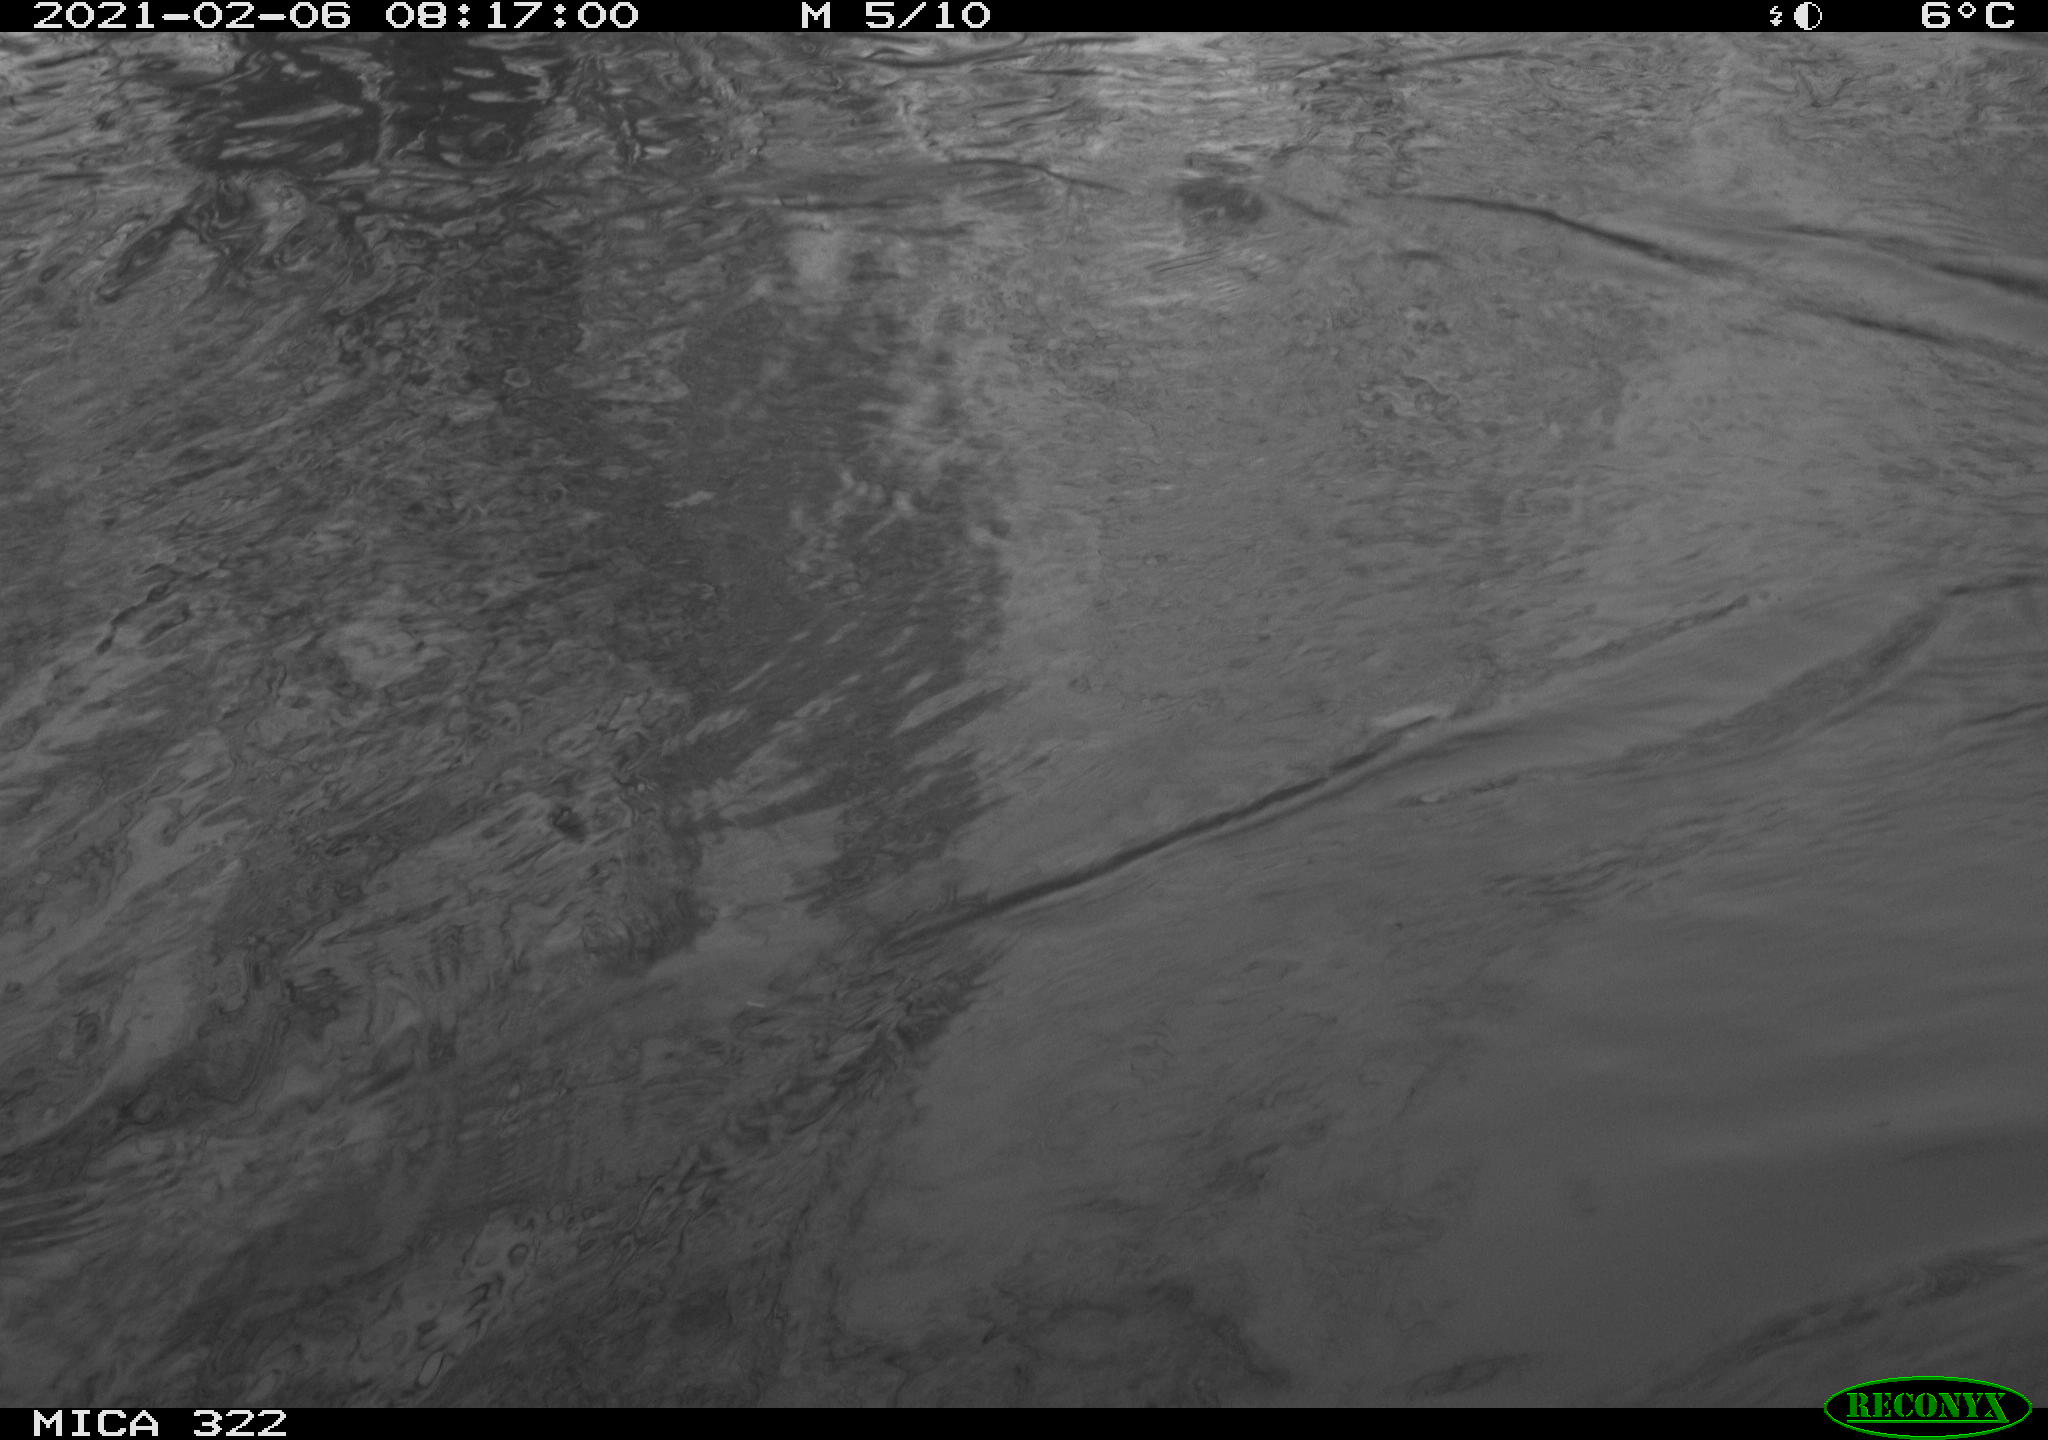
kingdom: Animalia
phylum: Chordata
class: Aves
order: Anseriformes
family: Anatidae
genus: Mareca
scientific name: Mareca strepera
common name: Gadwall
